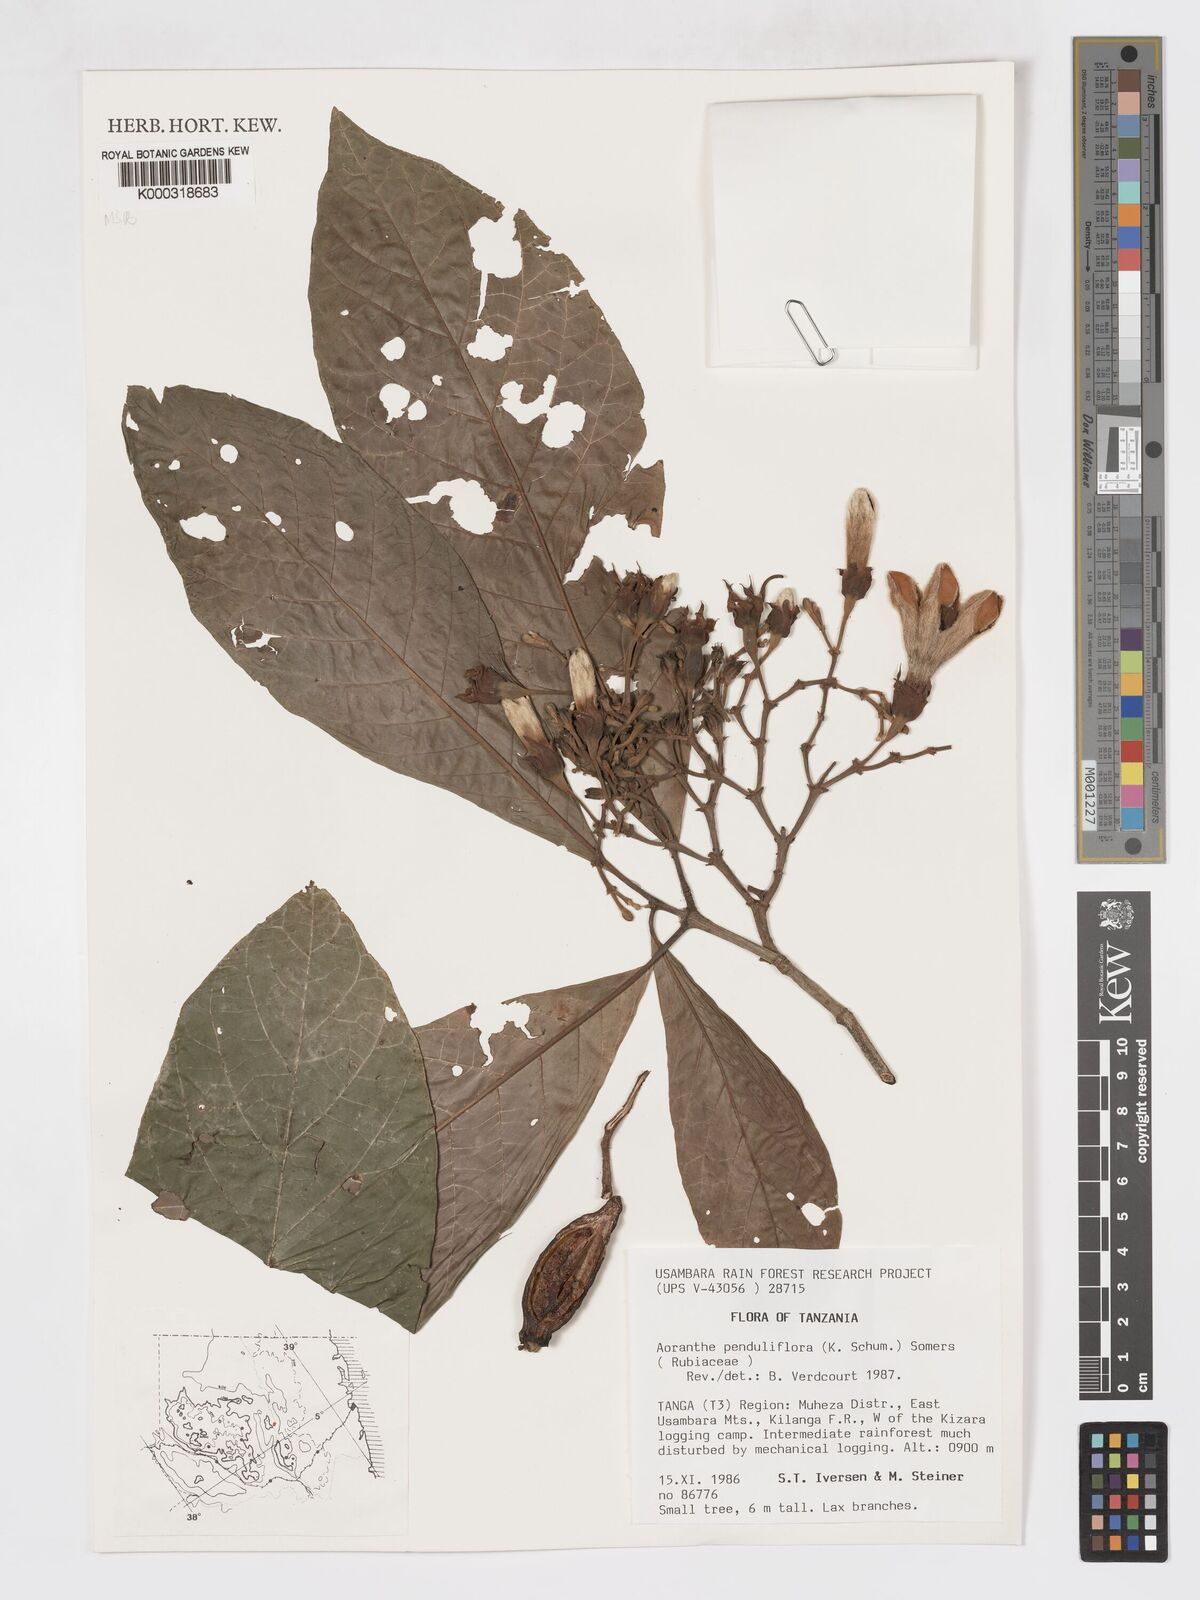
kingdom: Plantae
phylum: Tracheophyta
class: Magnoliopsida
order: Gentianales
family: Rubiaceae
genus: Aoranthe
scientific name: Aoranthe penduliflora
